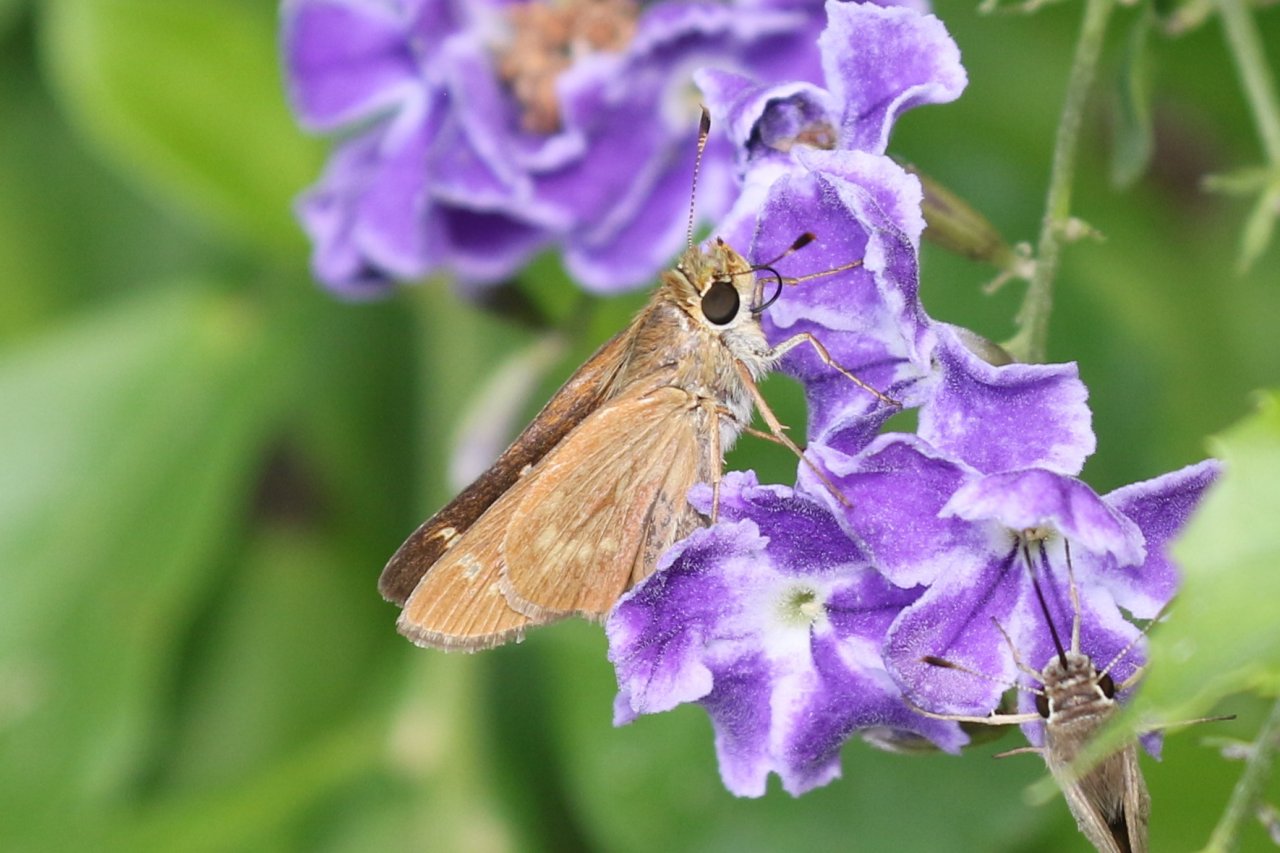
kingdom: Animalia
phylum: Arthropoda
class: Insecta
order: Lepidoptera
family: Hesperiidae
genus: Mellana
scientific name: Mellana eulogius
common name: Common Mellana
